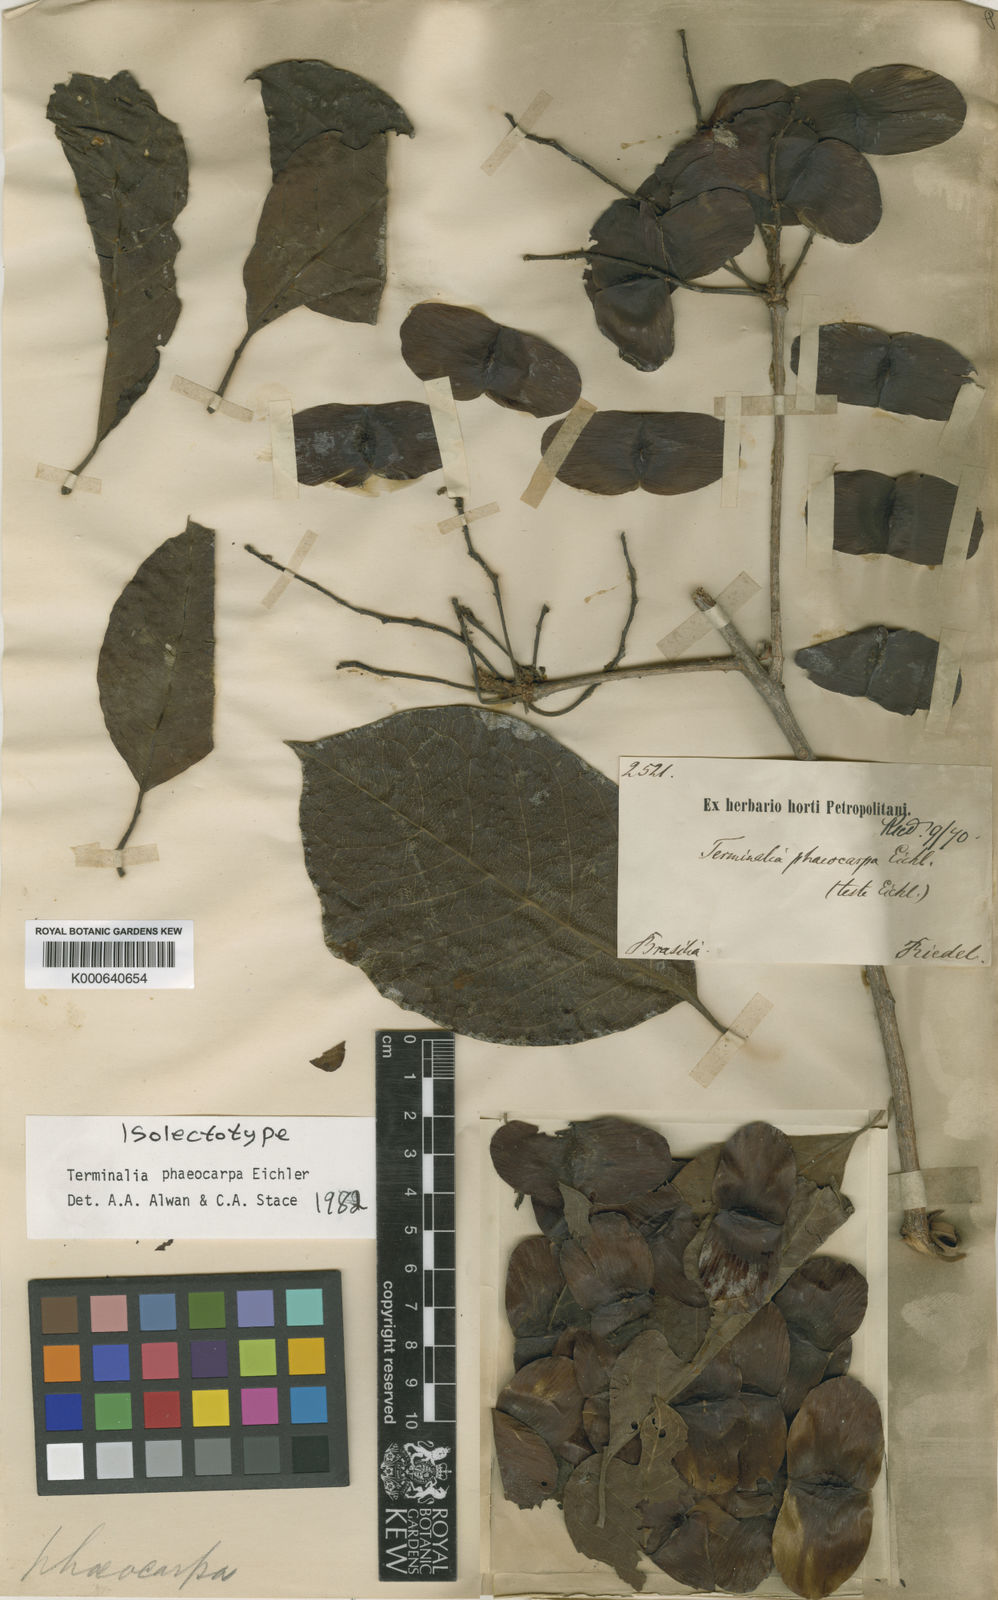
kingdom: Plantae
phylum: Tracheophyta
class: Magnoliopsida
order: Myrtales
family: Combretaceae
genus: Terminalia
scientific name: Terminalia phaeocarpa
